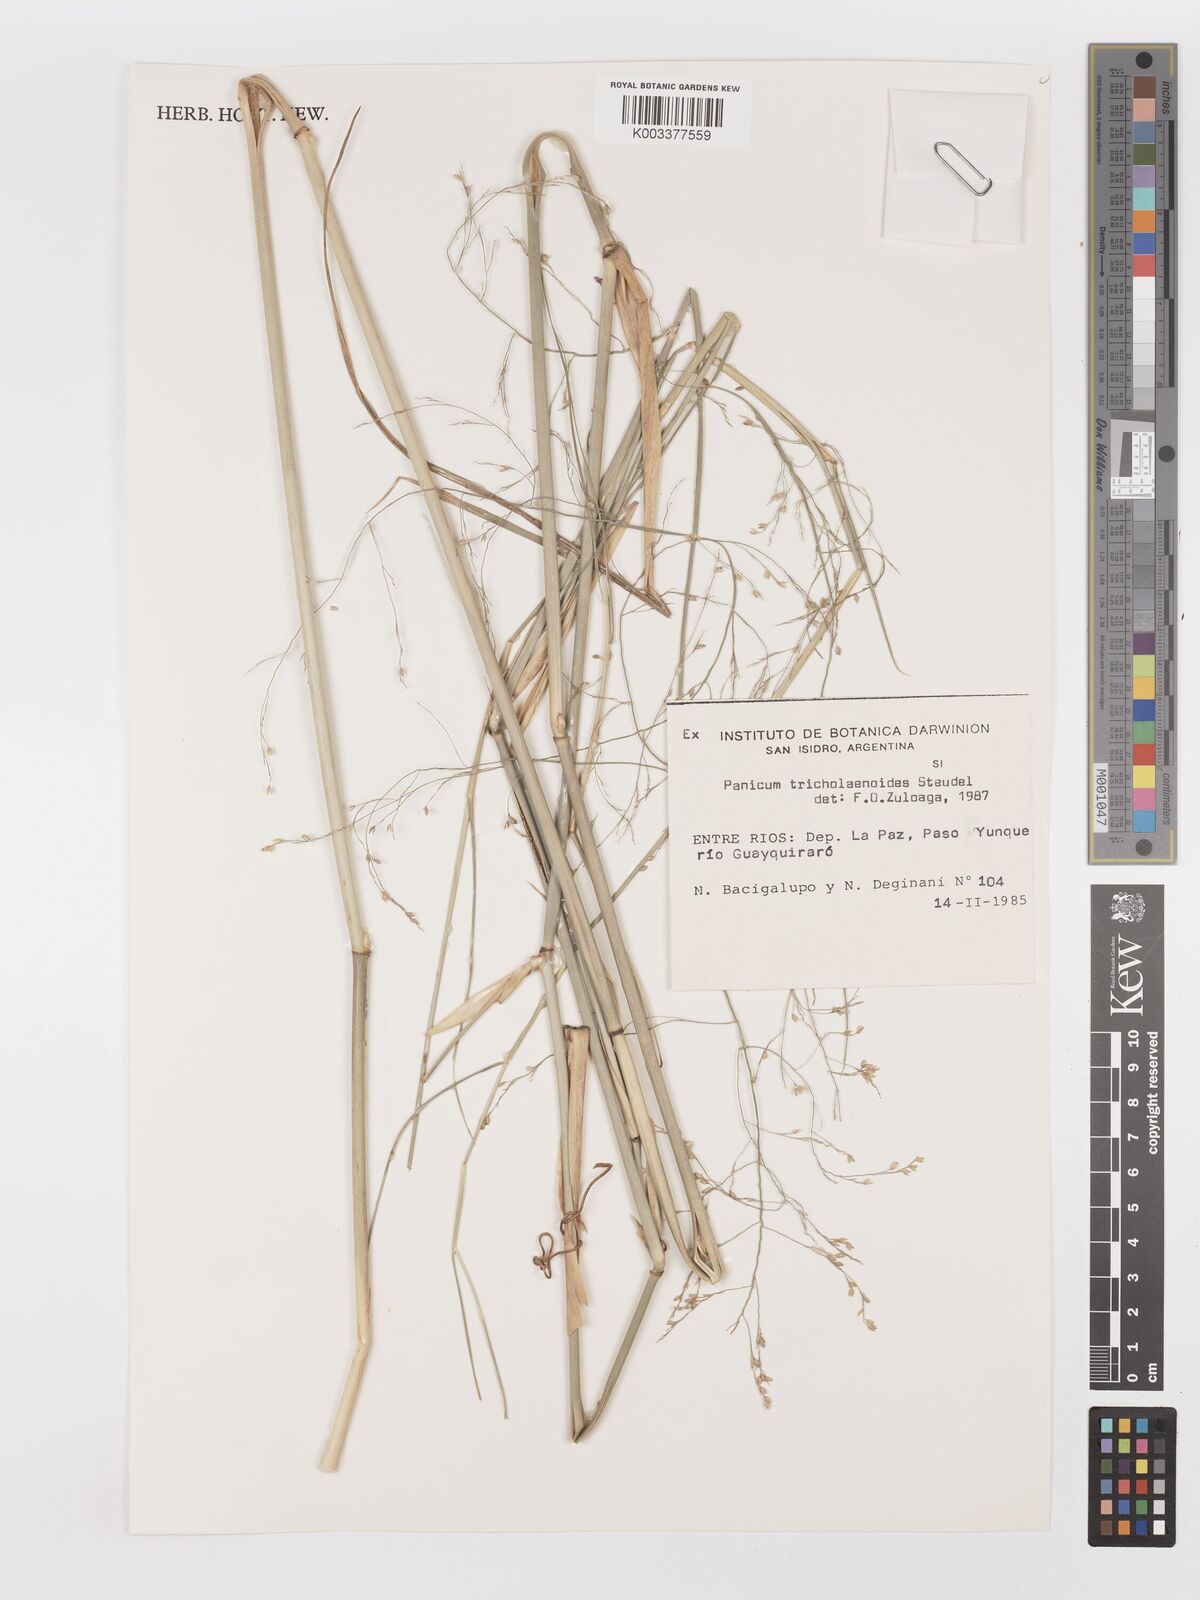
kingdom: Plantae
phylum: Tracheophyta
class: Liliopsida
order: Poales
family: Poaceae
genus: Panicum
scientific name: Panicum tricholaenoides
